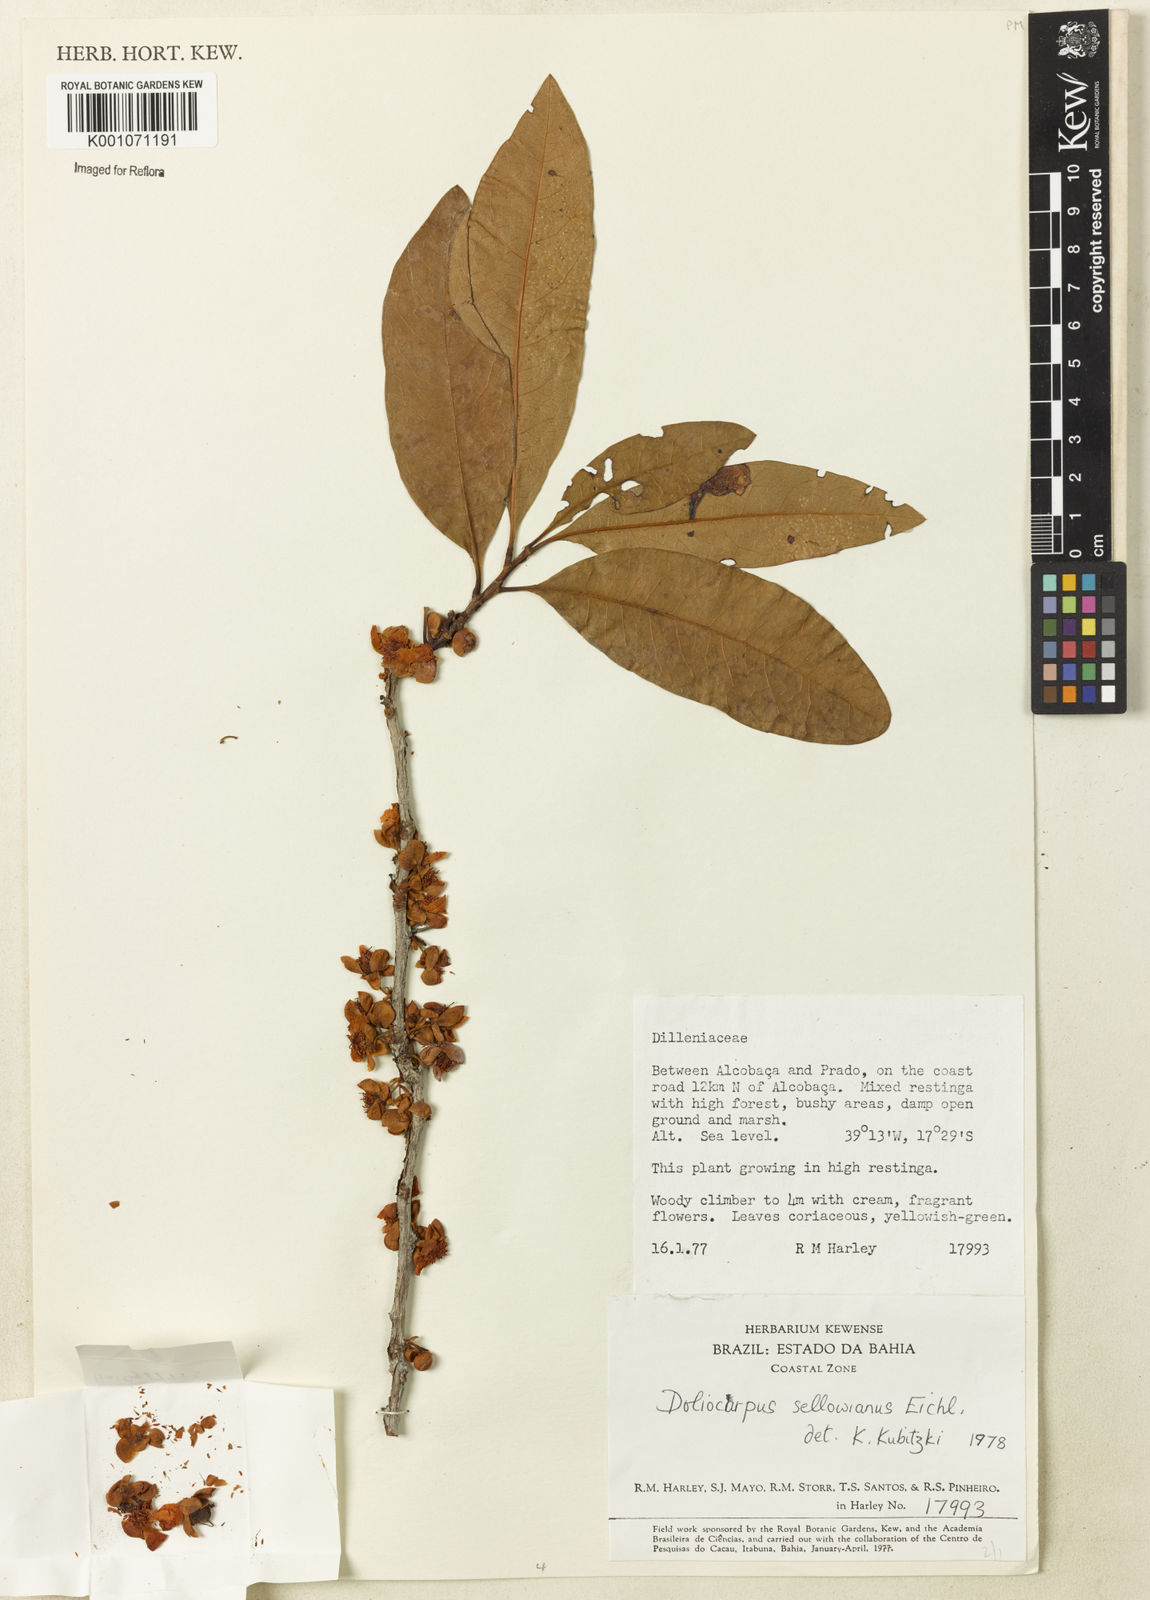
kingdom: Plantae
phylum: Tracheophyta
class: Magnoliopsida
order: Dilleniales
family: Dilleniaceae
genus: Doliocarpus
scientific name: Doliocarpus sellowianus
